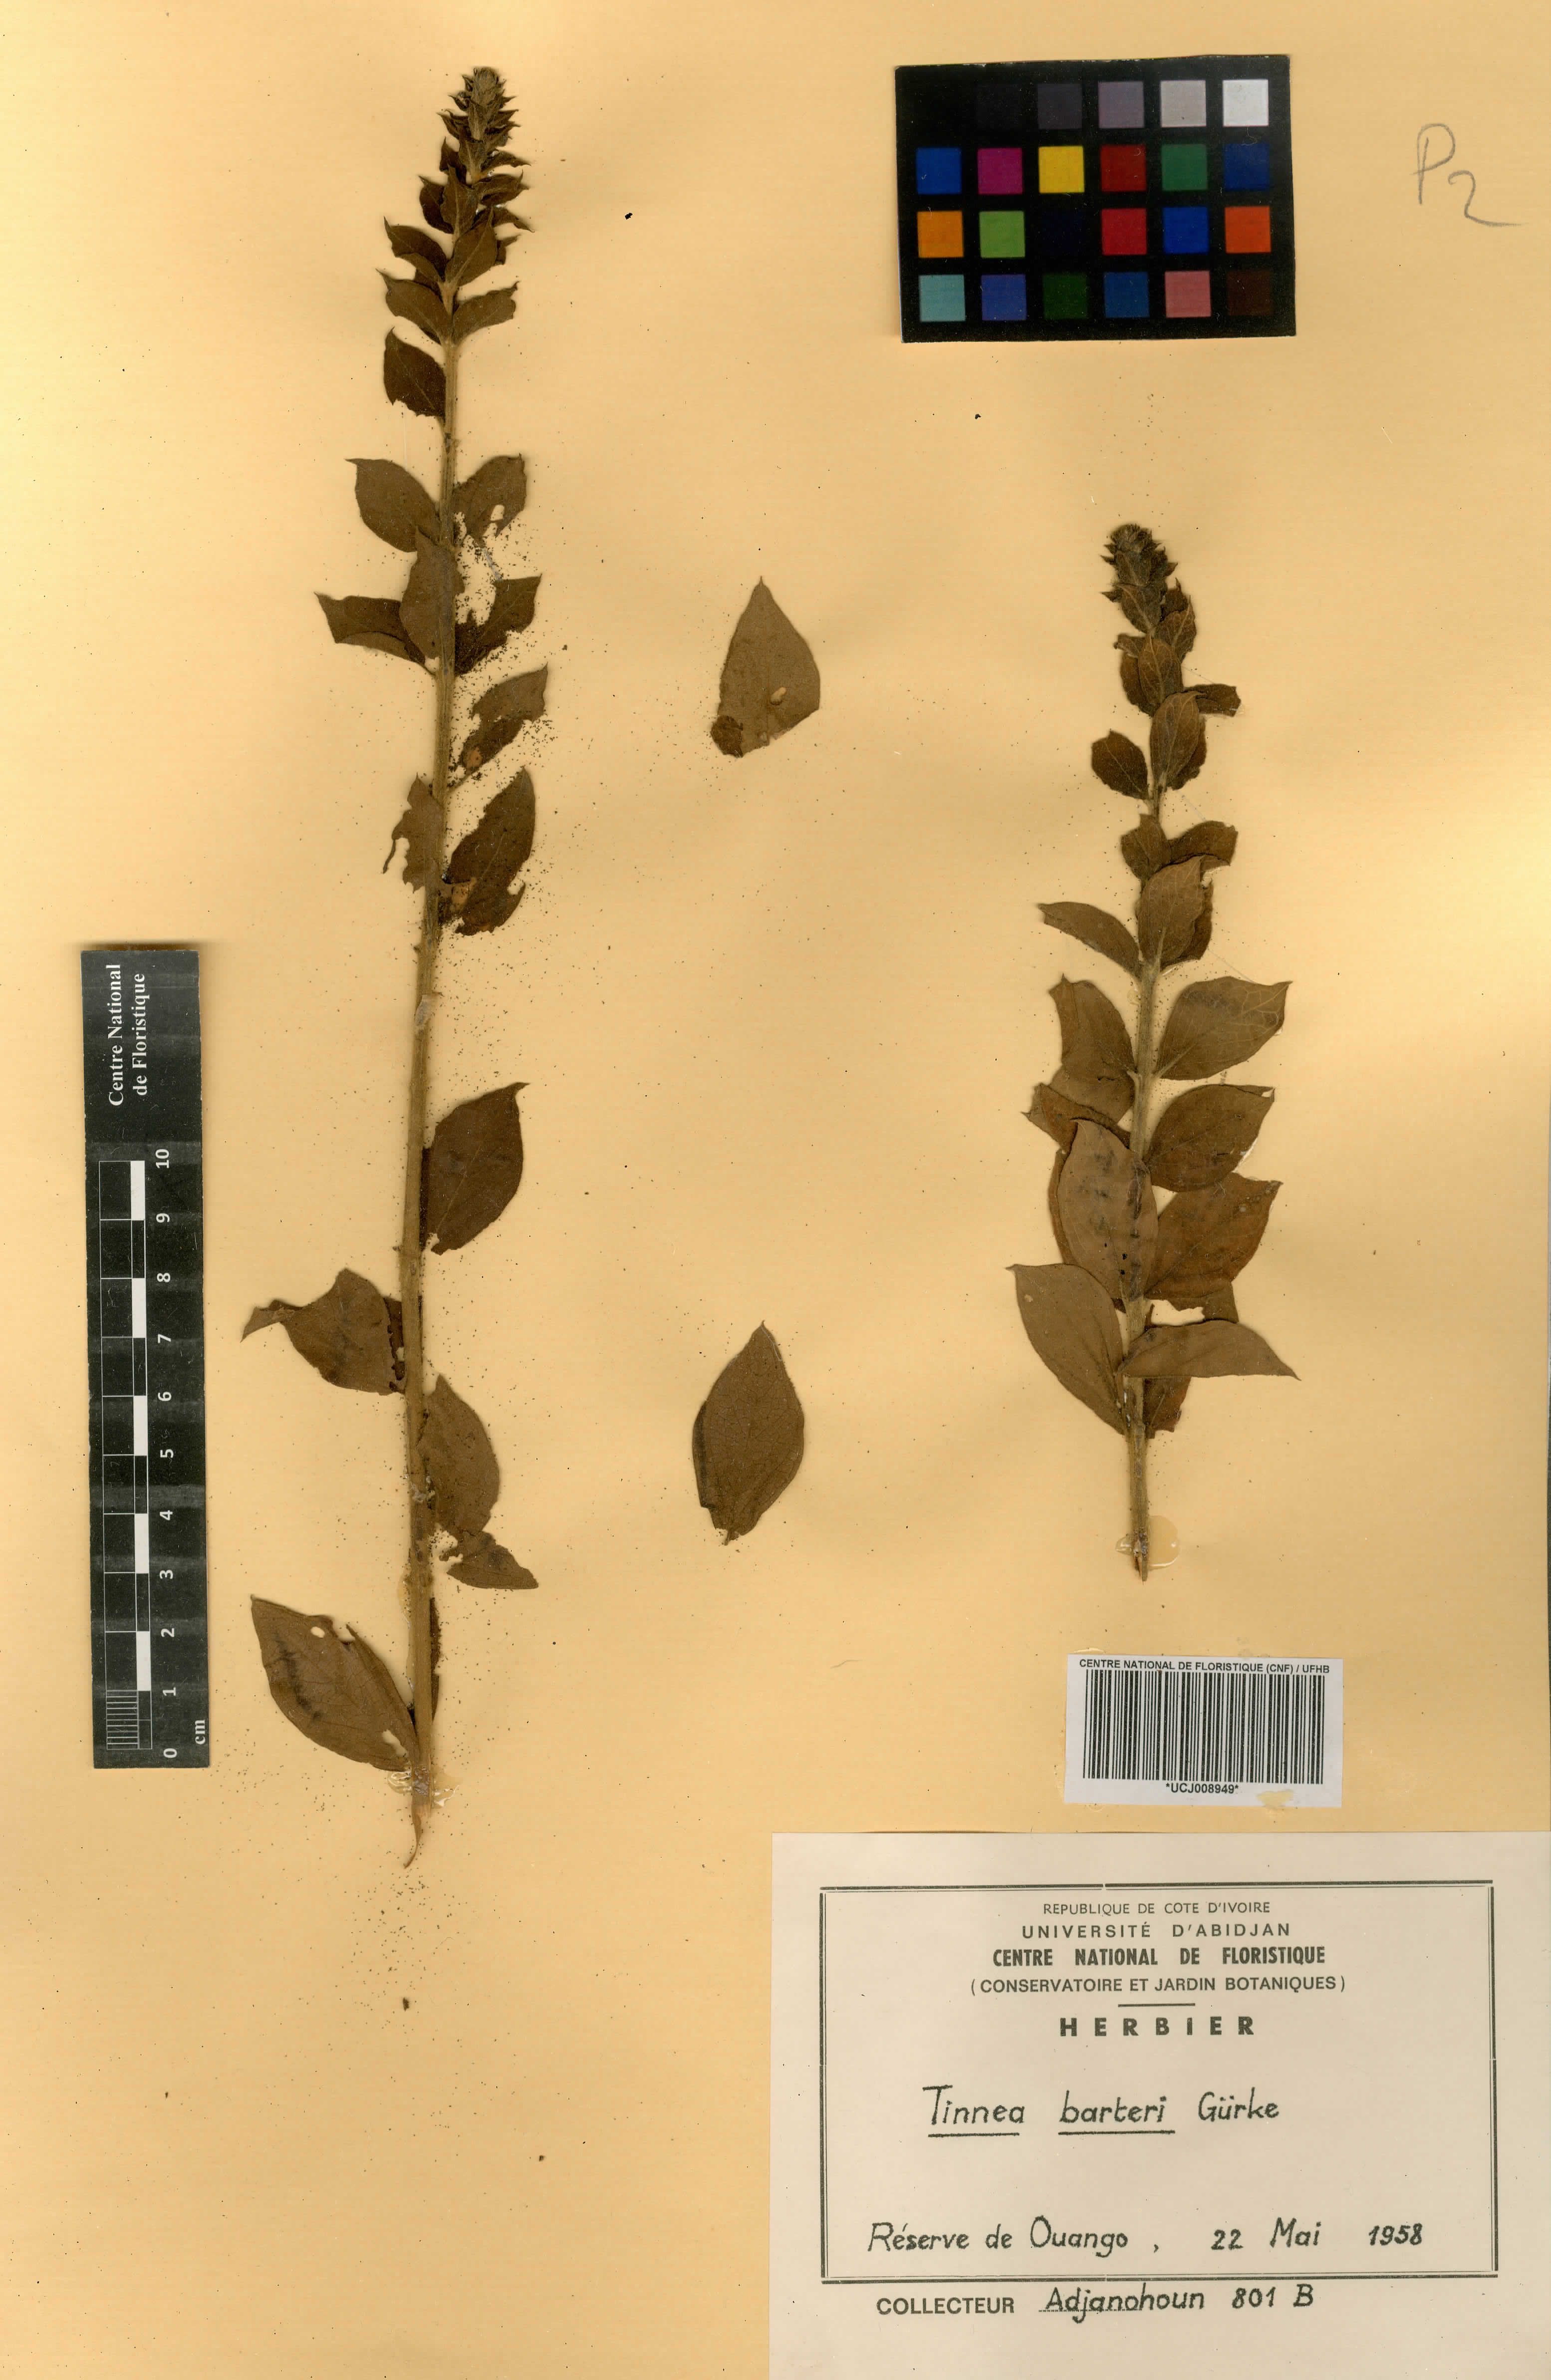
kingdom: Plantae
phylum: Tracheophyta
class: Magnoliopsida
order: Lamiales
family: Lamiaceae
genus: Tinnea
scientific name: Tinnea barteri
